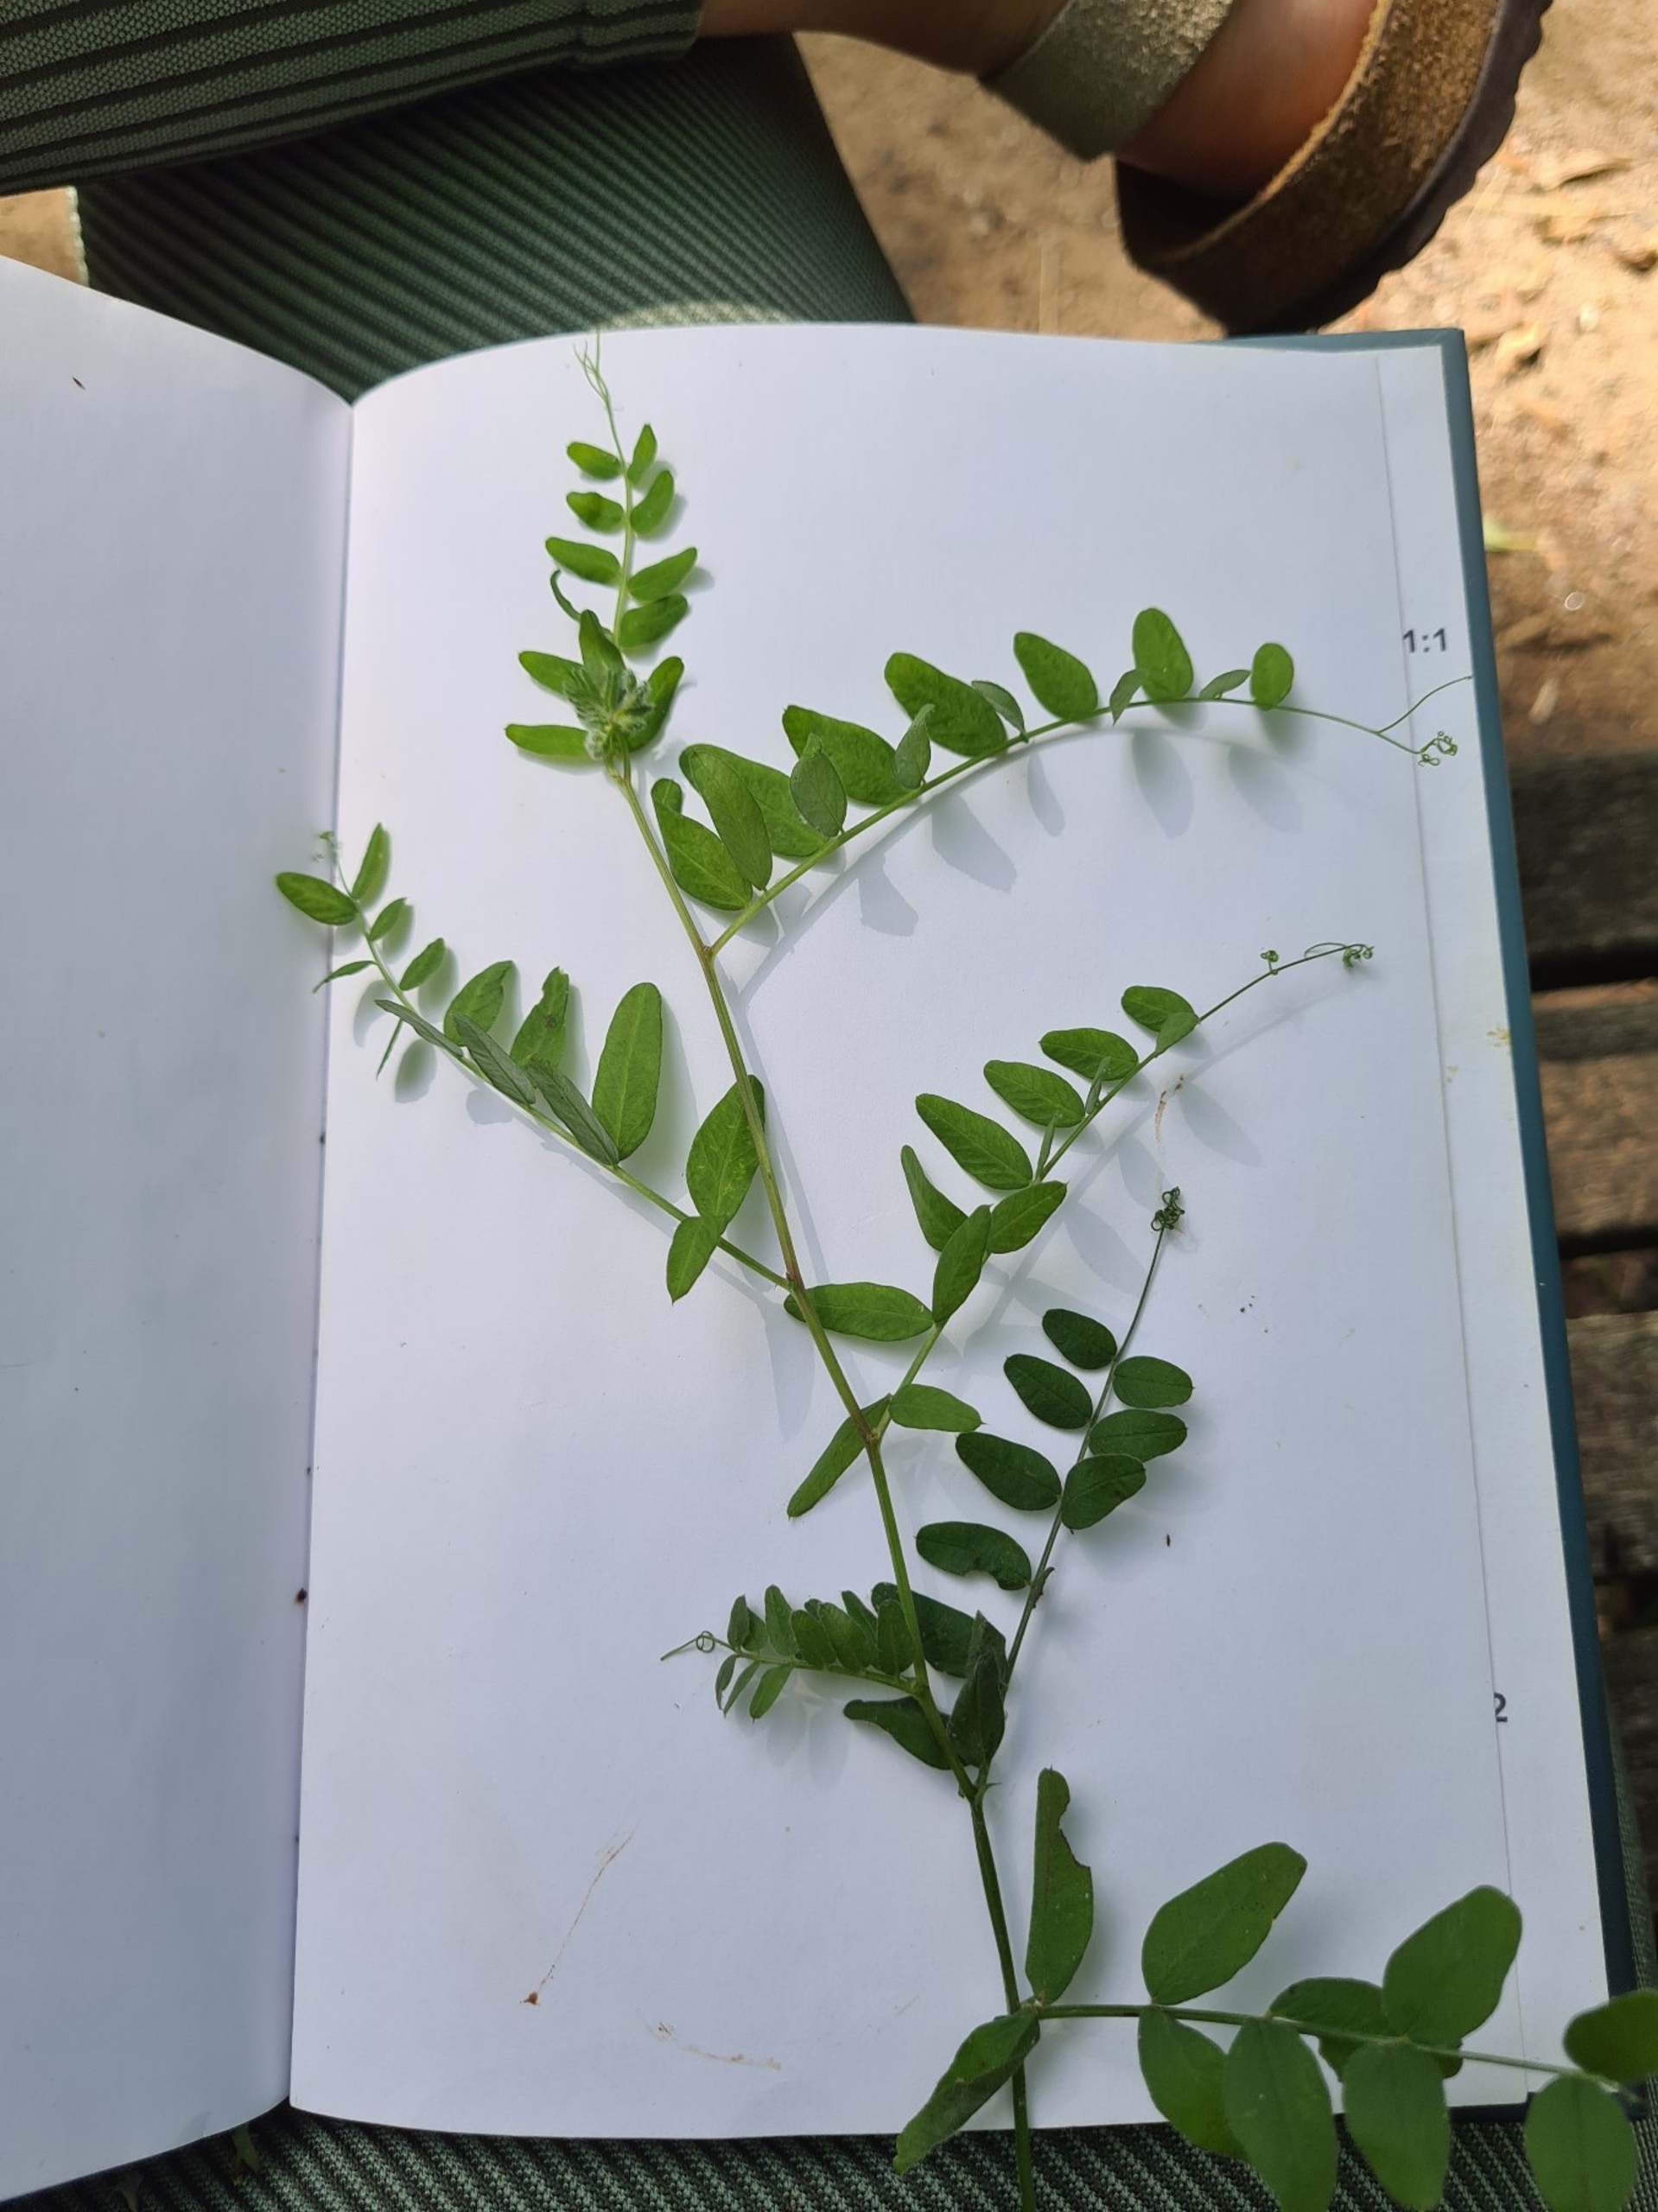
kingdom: Plantae
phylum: Tracheophyta
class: Magnoliopsida
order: Fabales
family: Fabaceae
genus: Vicia
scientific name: Vicia
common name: Vikkeslægten
